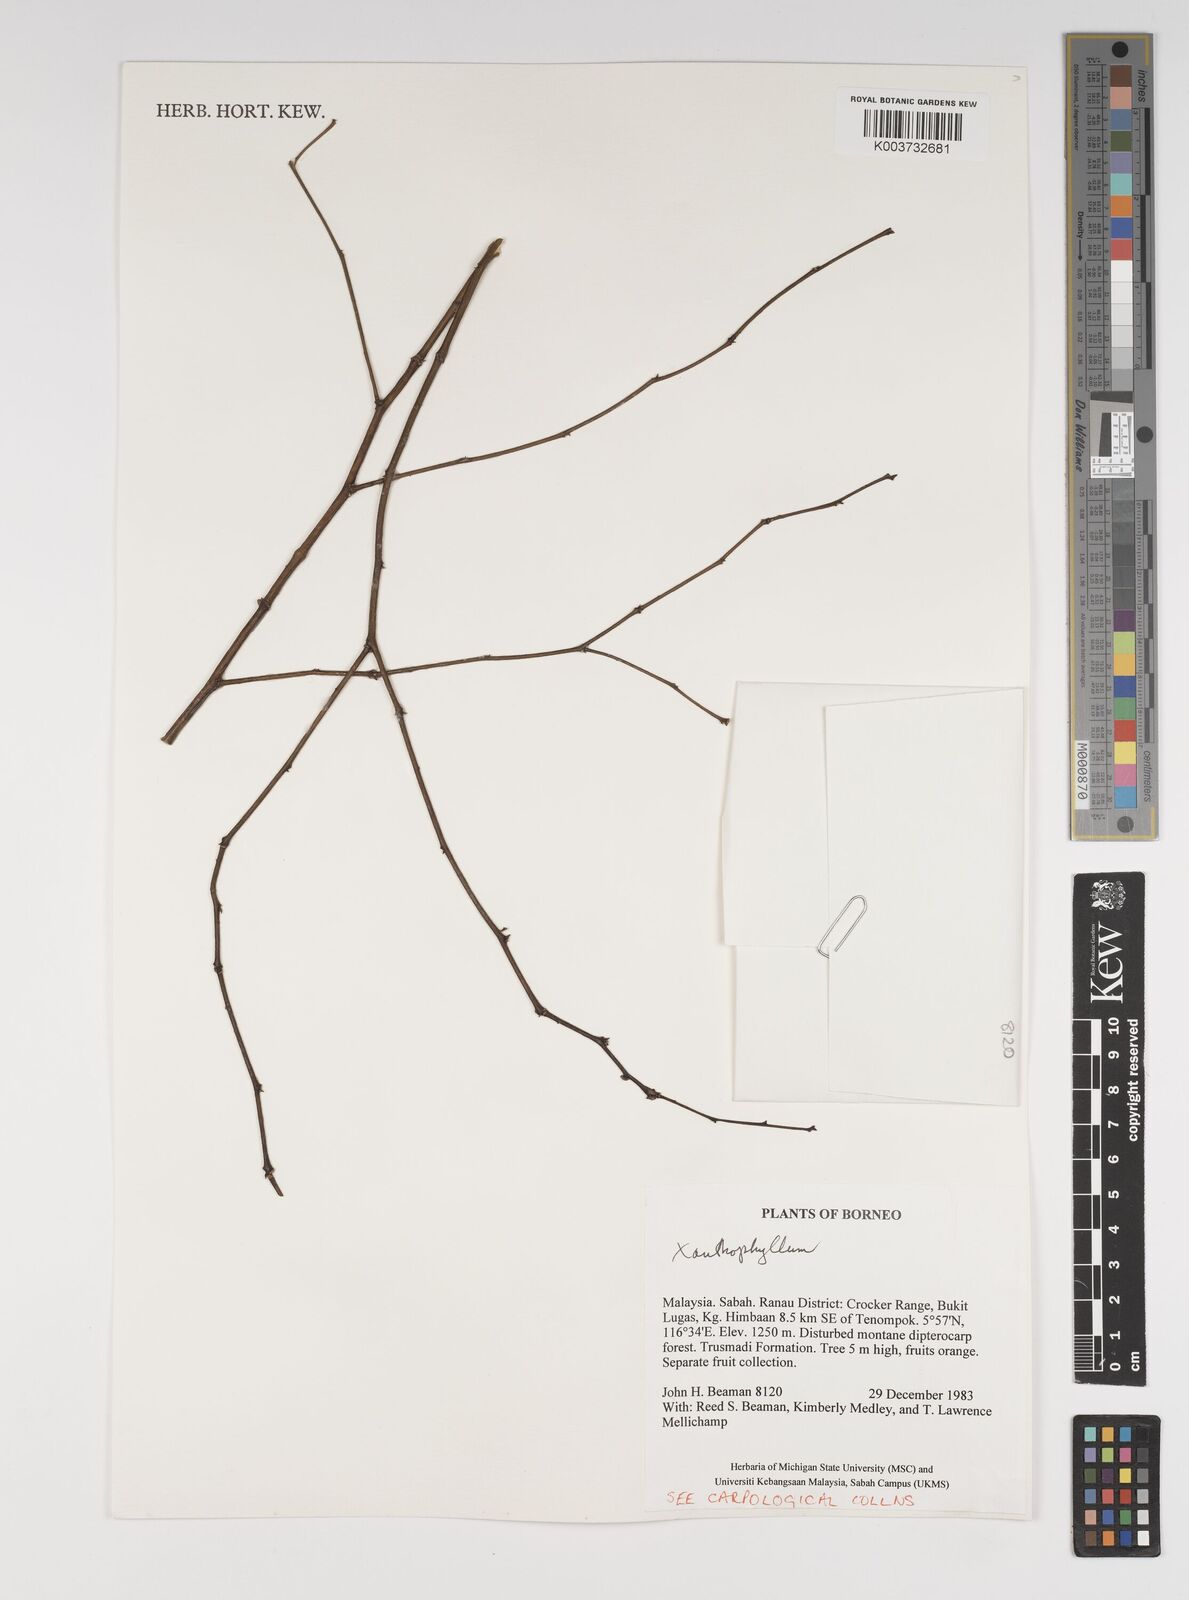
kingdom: Plantae
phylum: Tracheophyta
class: Magnoliopsida
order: Fabales
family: Polygalaceae
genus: Xanthophyllum
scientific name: Xanthophyllum
